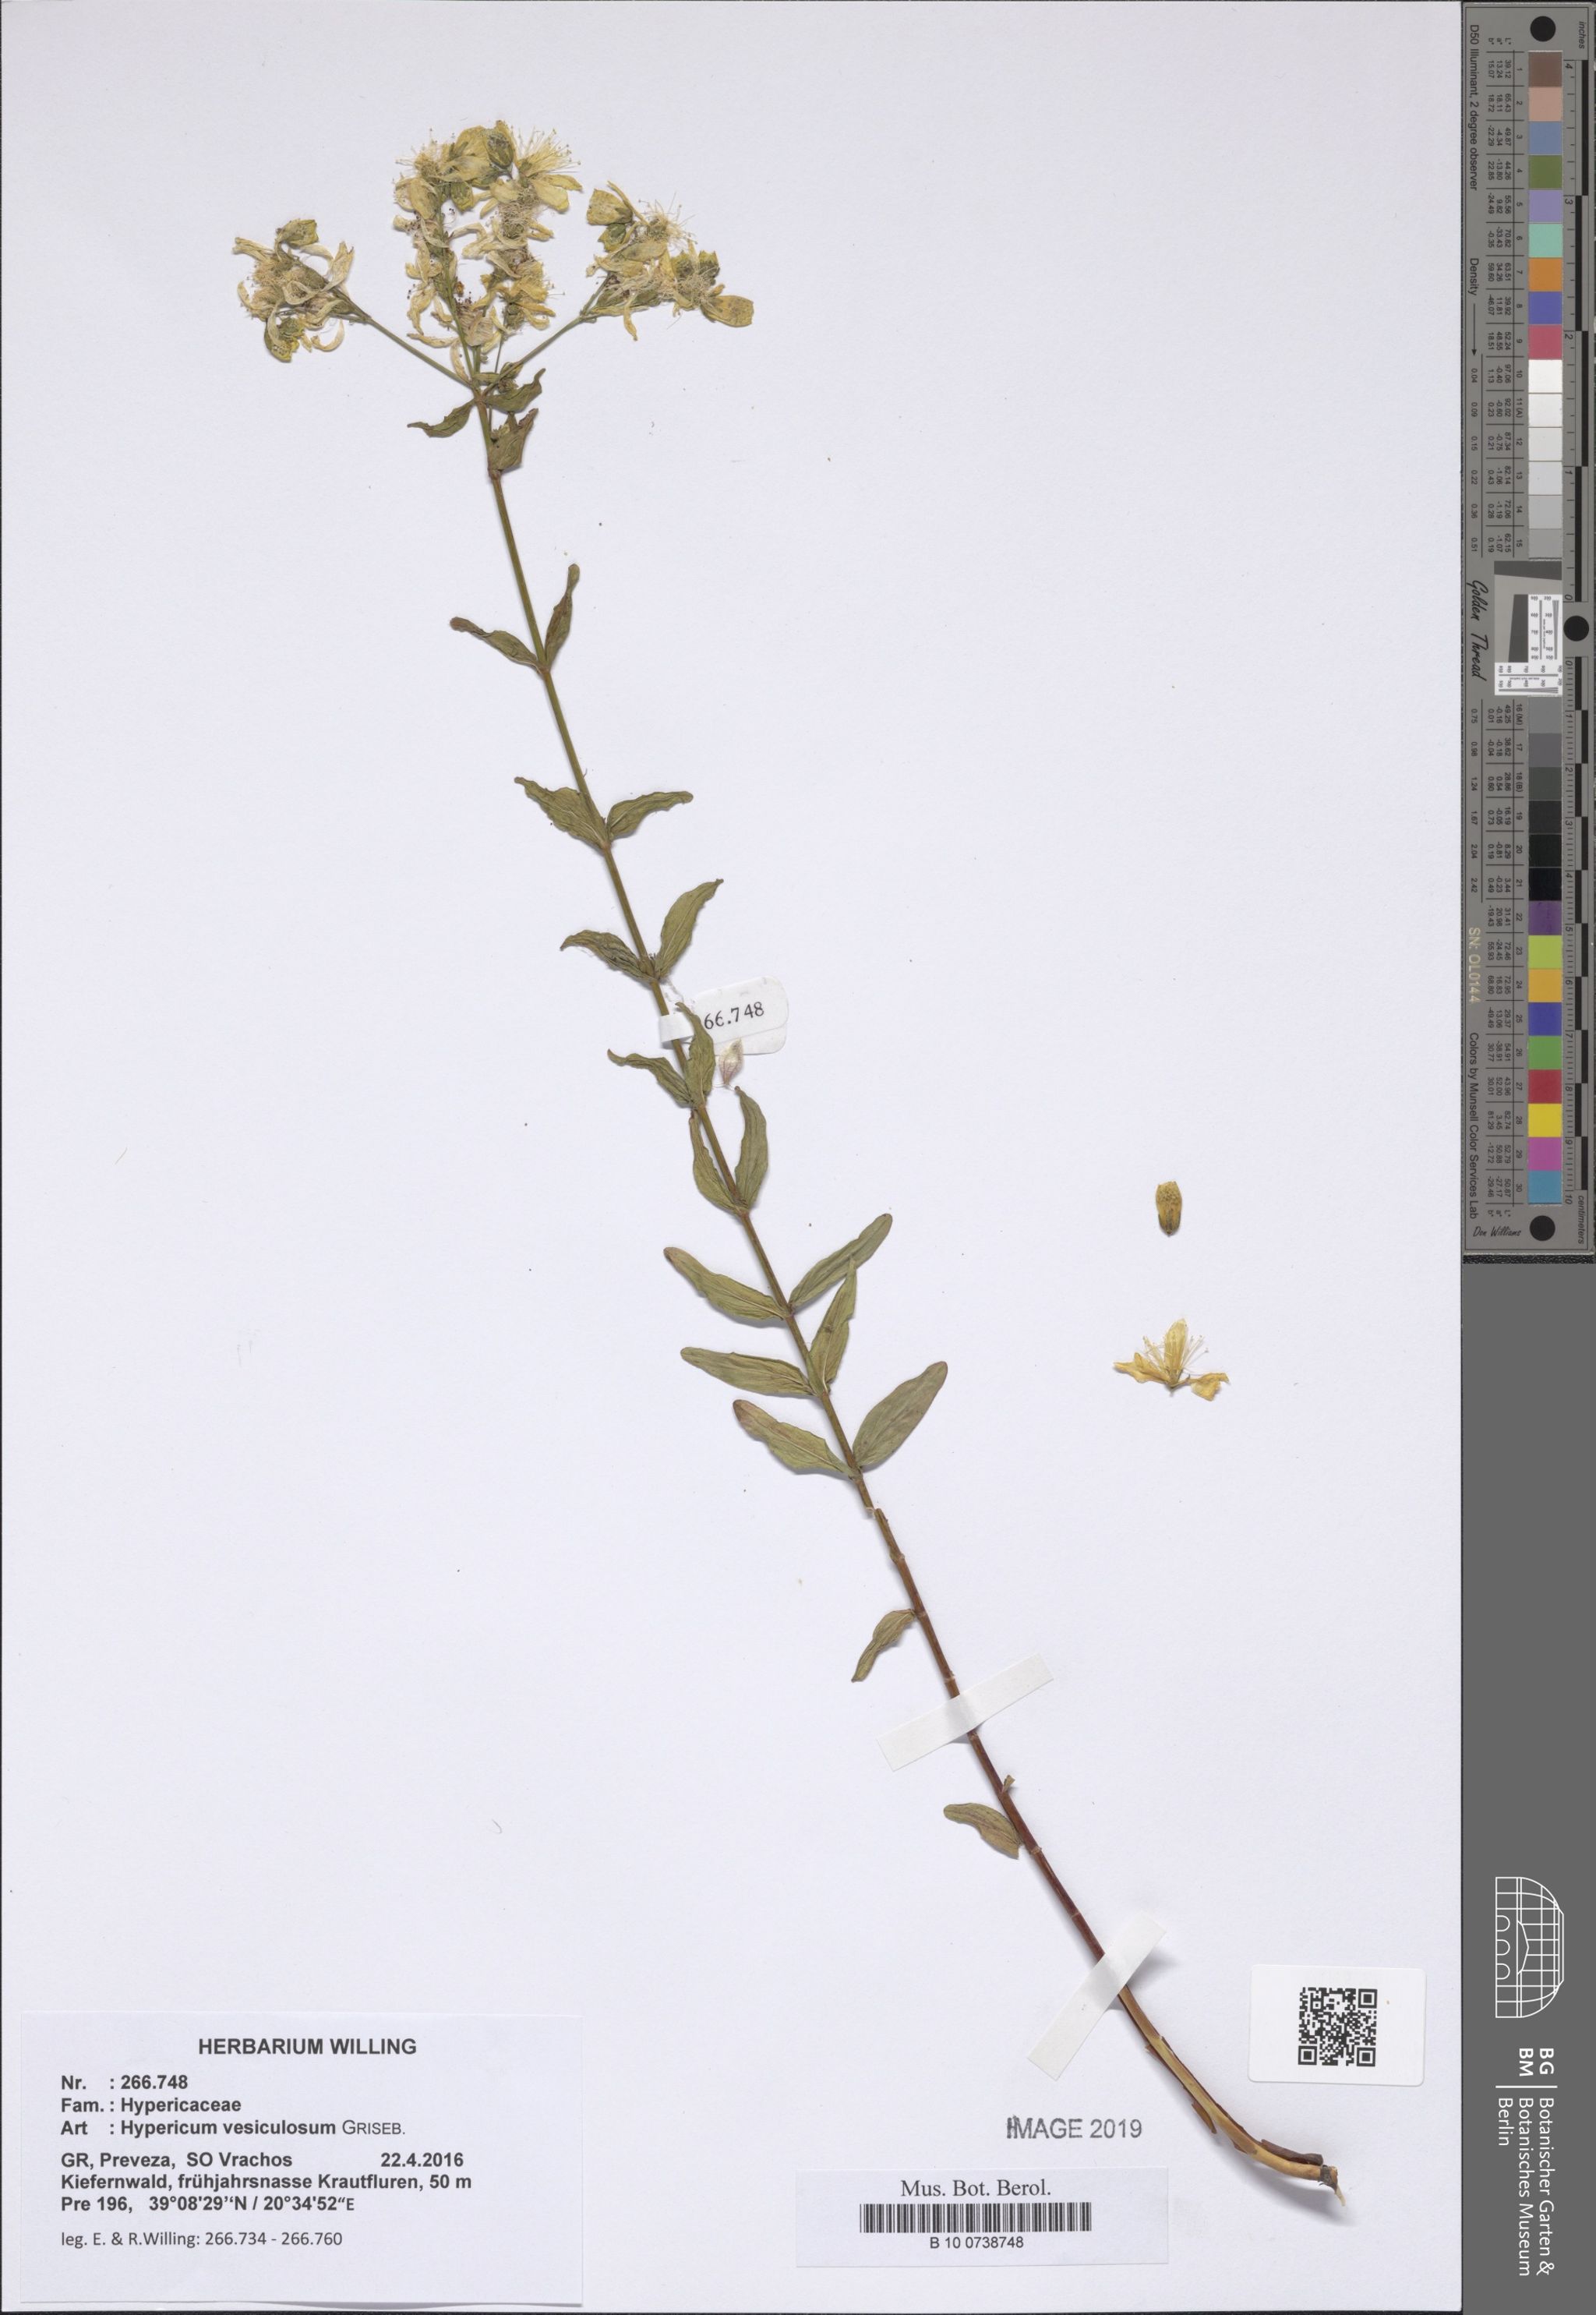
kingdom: Plantae
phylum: Tracheophyta
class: Magnoliopsida
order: Malpighiales
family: Hypericaceae
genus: Hypericum
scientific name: Hypericum vesiculosum
